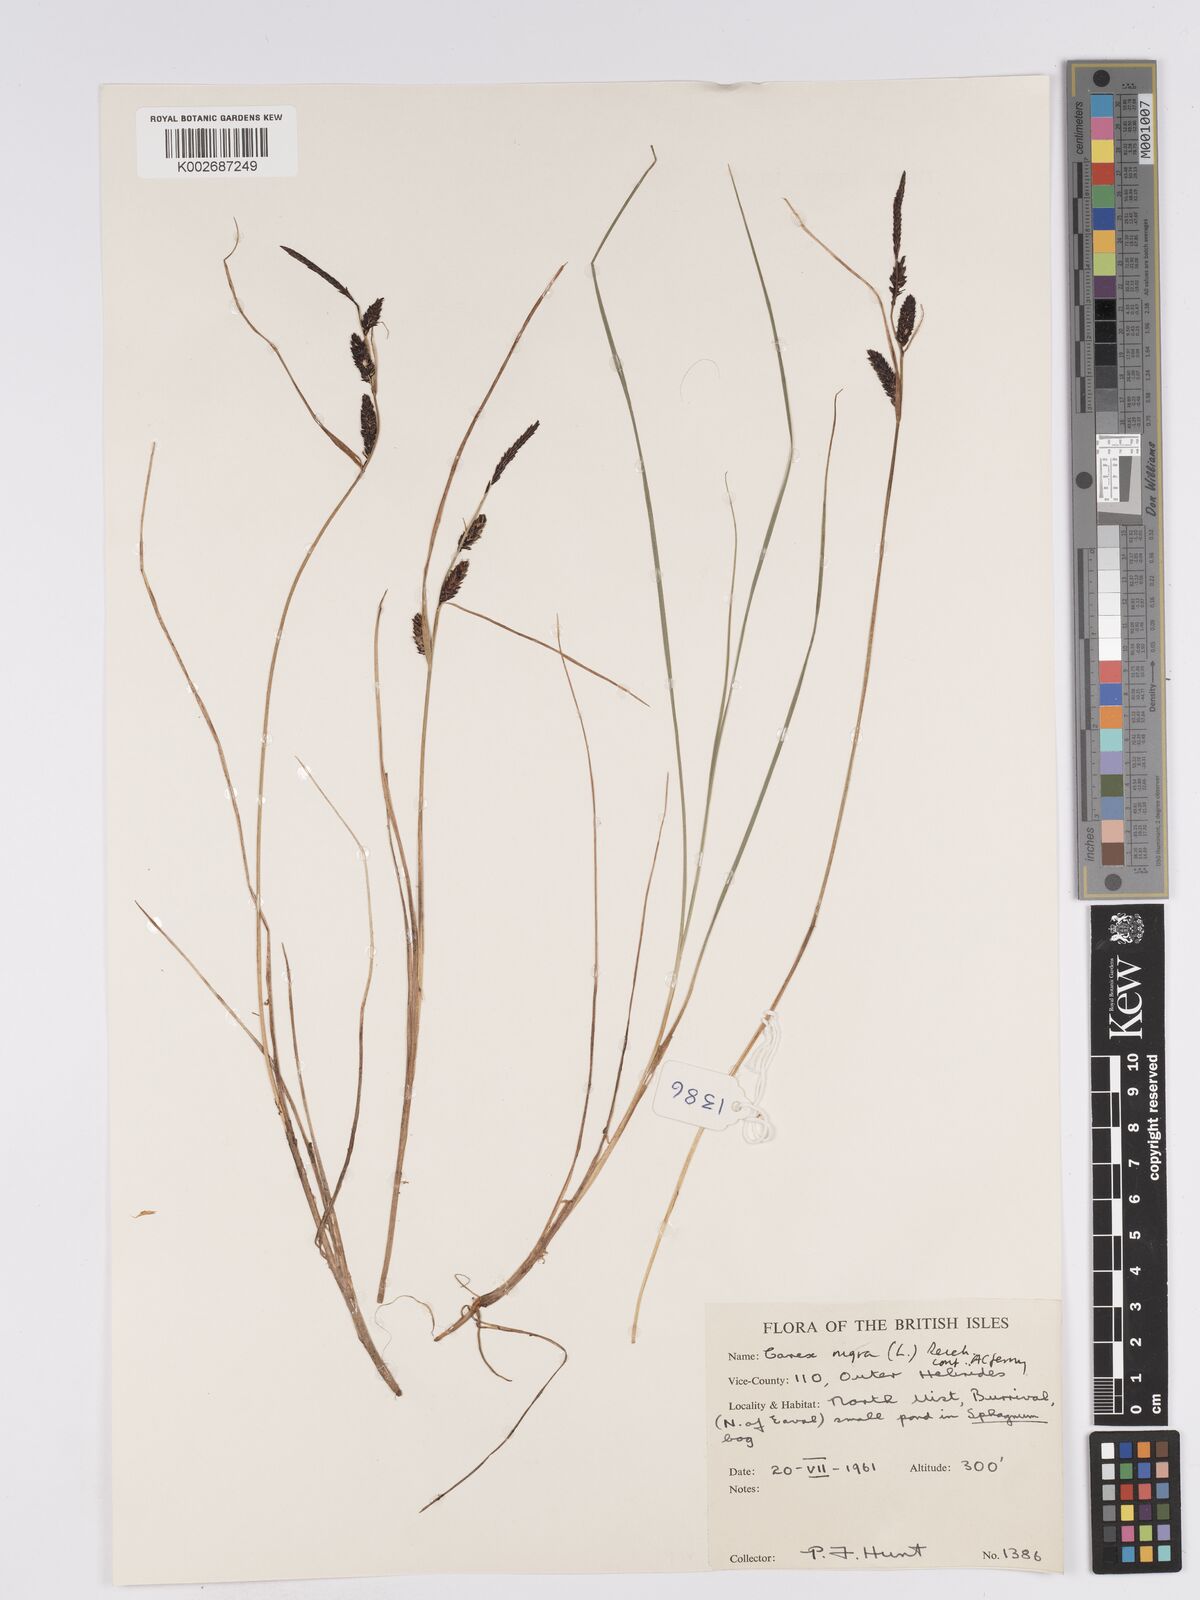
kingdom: Plantae
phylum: Tracheophyta
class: Liliopsida
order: Poales
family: Cyperaceae
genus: Carex
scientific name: Carex nigra
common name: Common sedge
